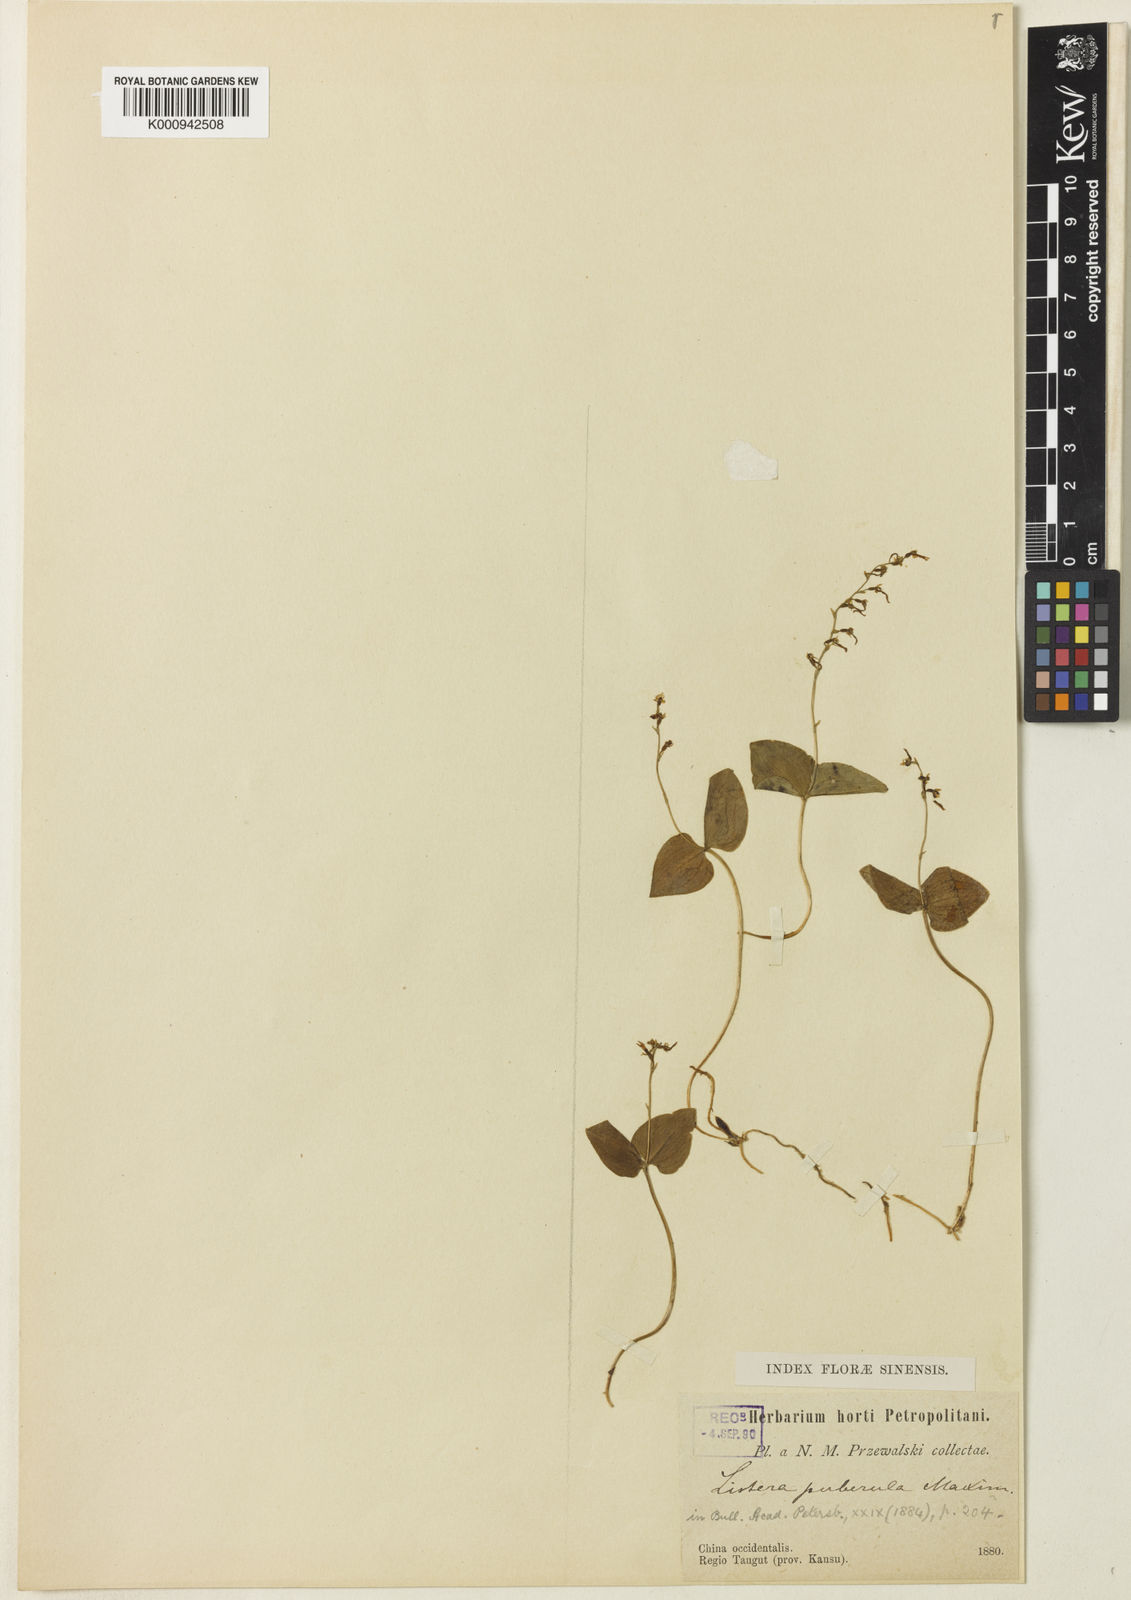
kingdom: Plantae
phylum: Tracheophyta
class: Liliopsida
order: Asparagales
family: Orchidaceae
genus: Neottia
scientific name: Neottia puberula
